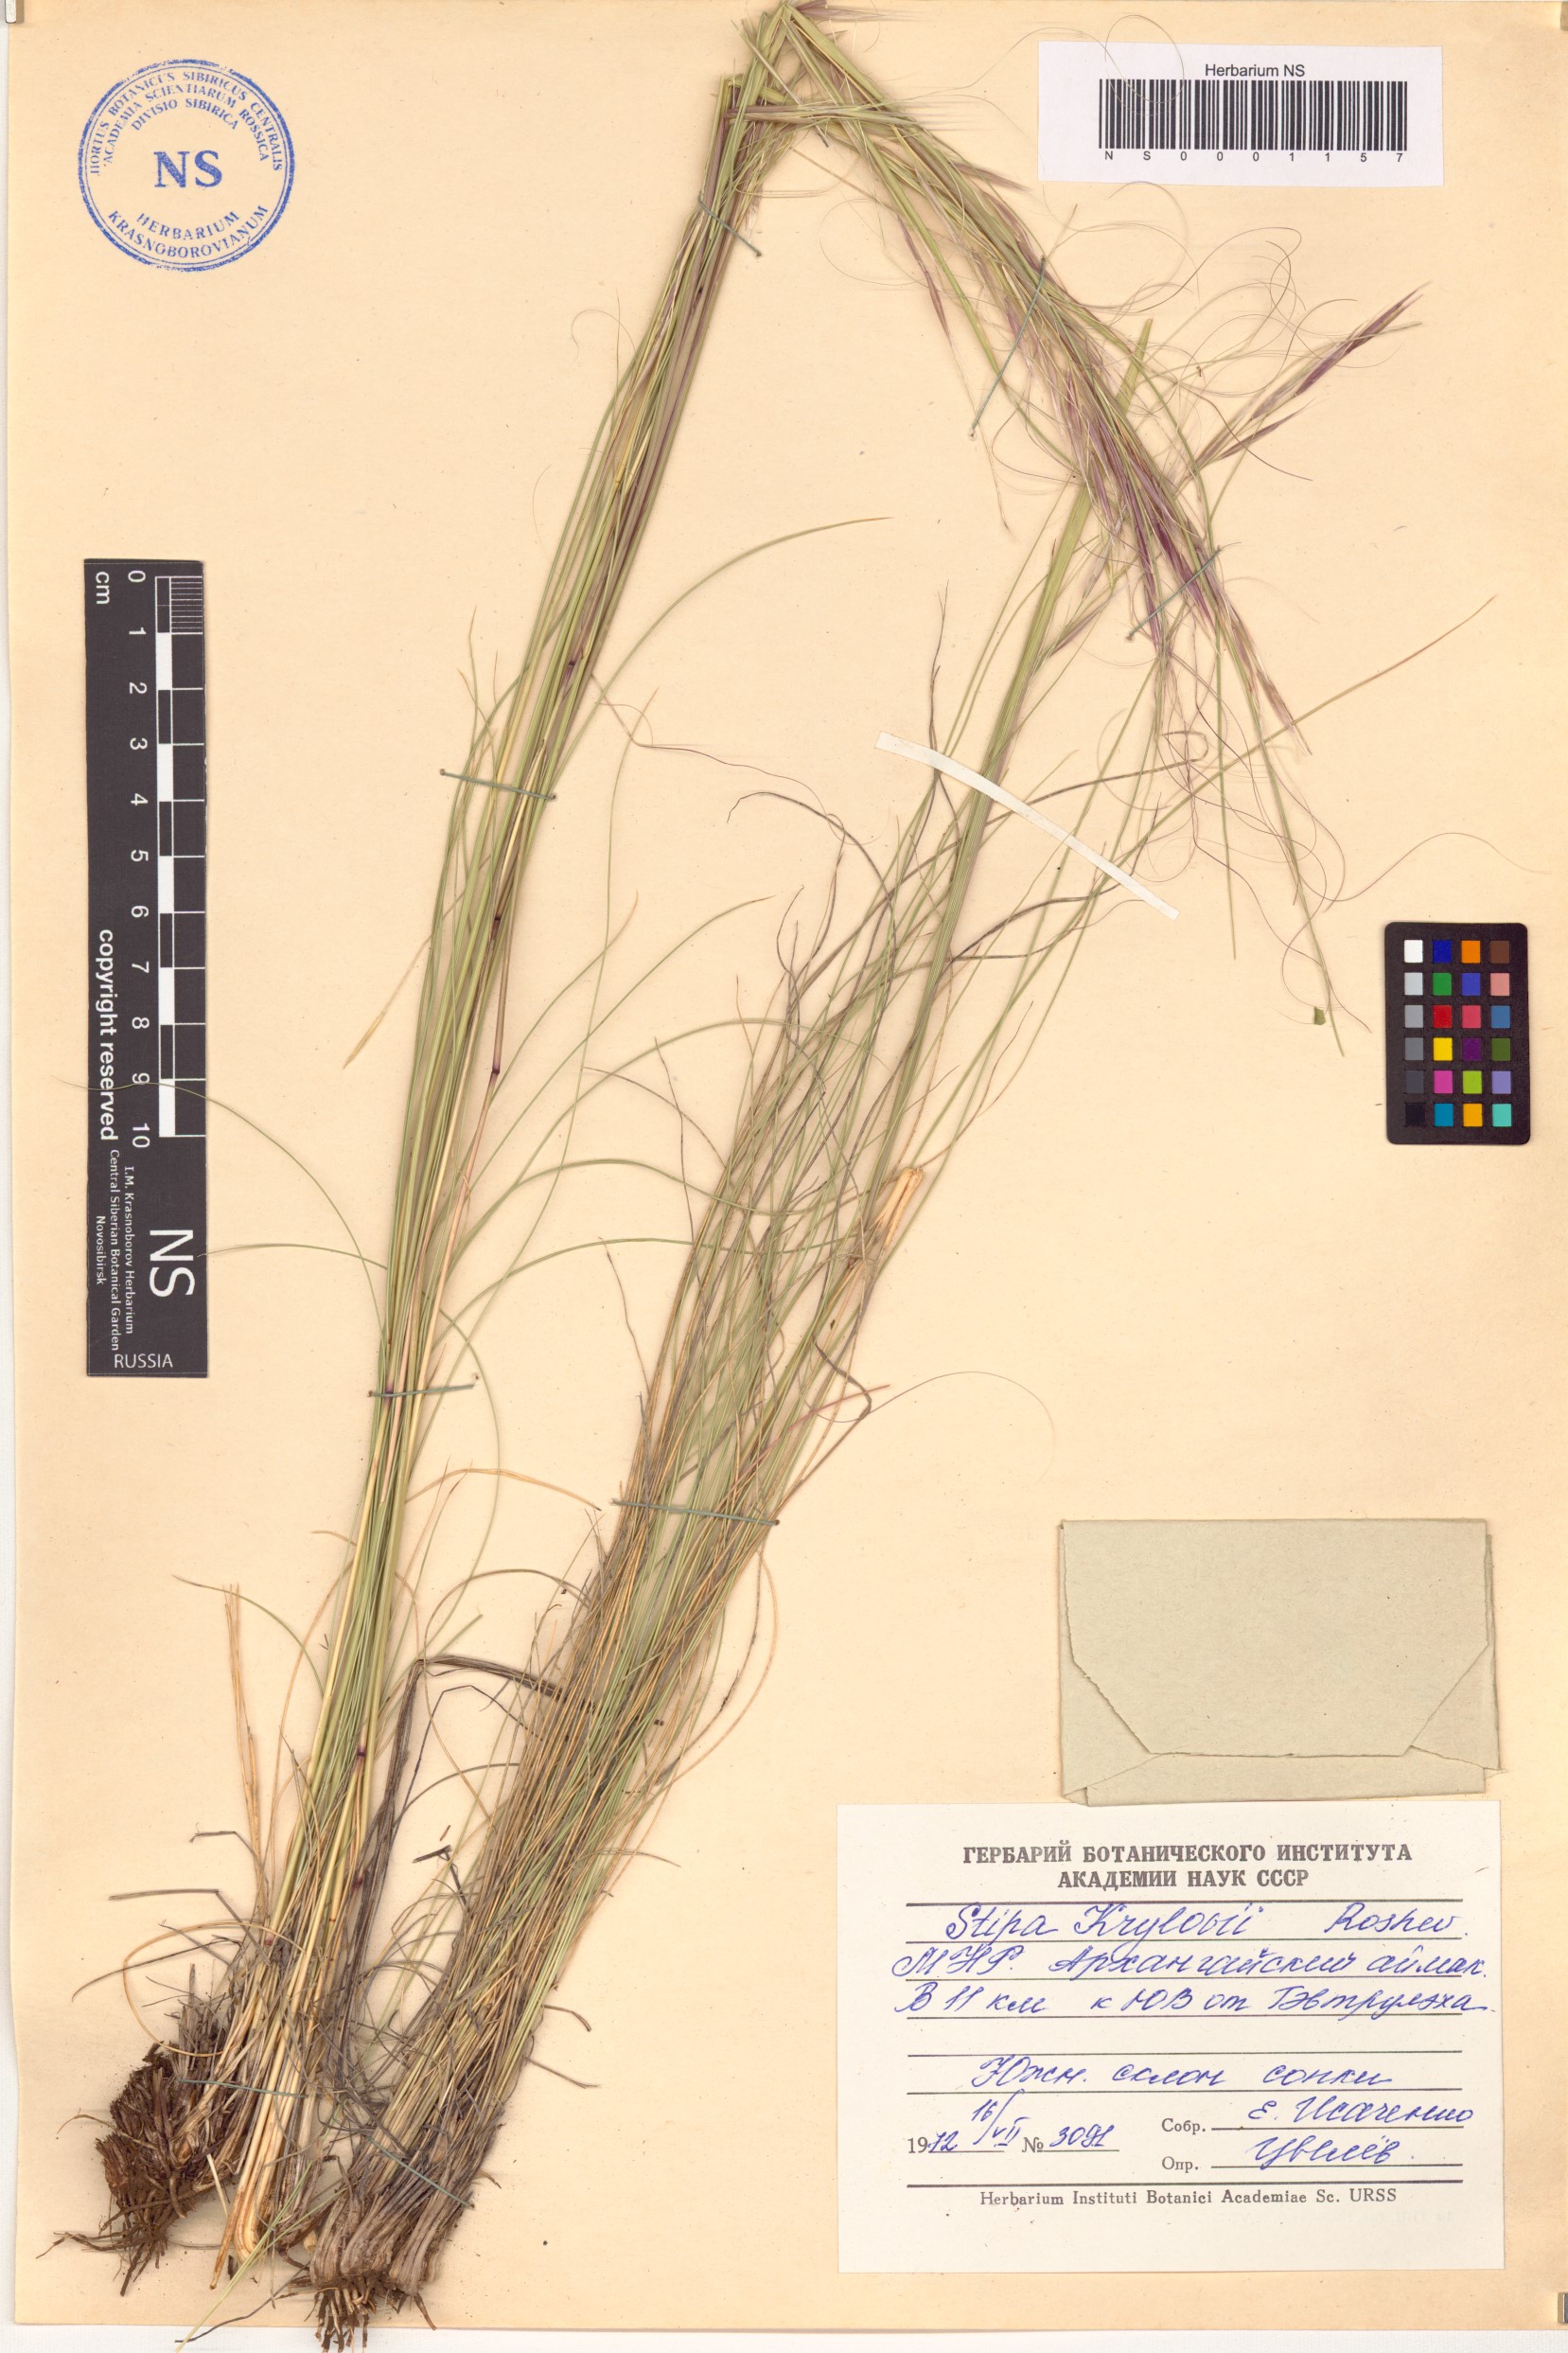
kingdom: Plantae
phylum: Tracheophyta
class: Liliopsida
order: Poales
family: Poaceae
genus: Stipa
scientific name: Stipa krylovii
